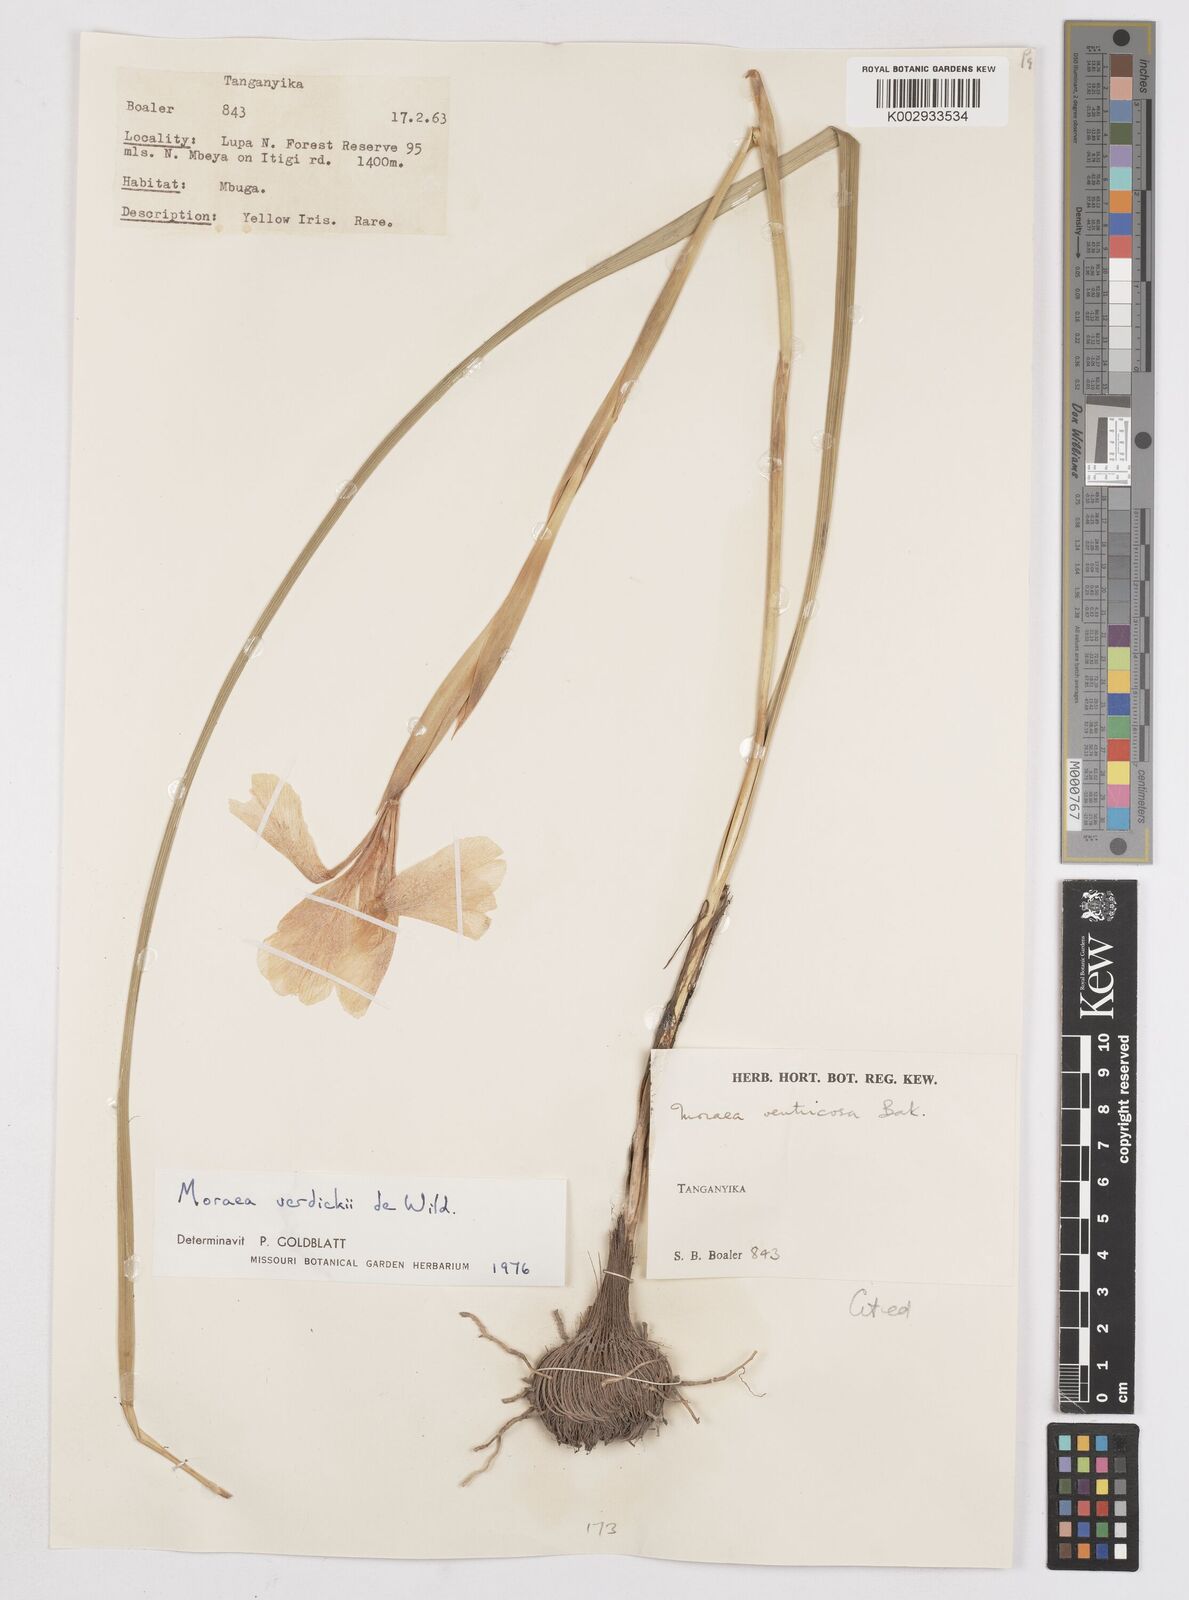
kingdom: Plantae
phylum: Tracheophyta
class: Liliopsida
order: Asparagales
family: Iridaceae
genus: Moraea
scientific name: Moraea verdickii
